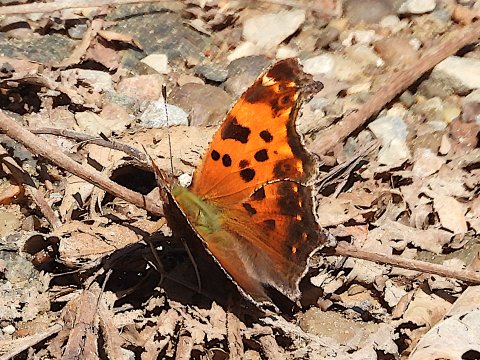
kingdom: Animalia
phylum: Arthropoda
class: Insecta
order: Lepidoptera
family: Nymphalidae
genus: Polygonia
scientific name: Polygonia comma
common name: Eastern Comma
